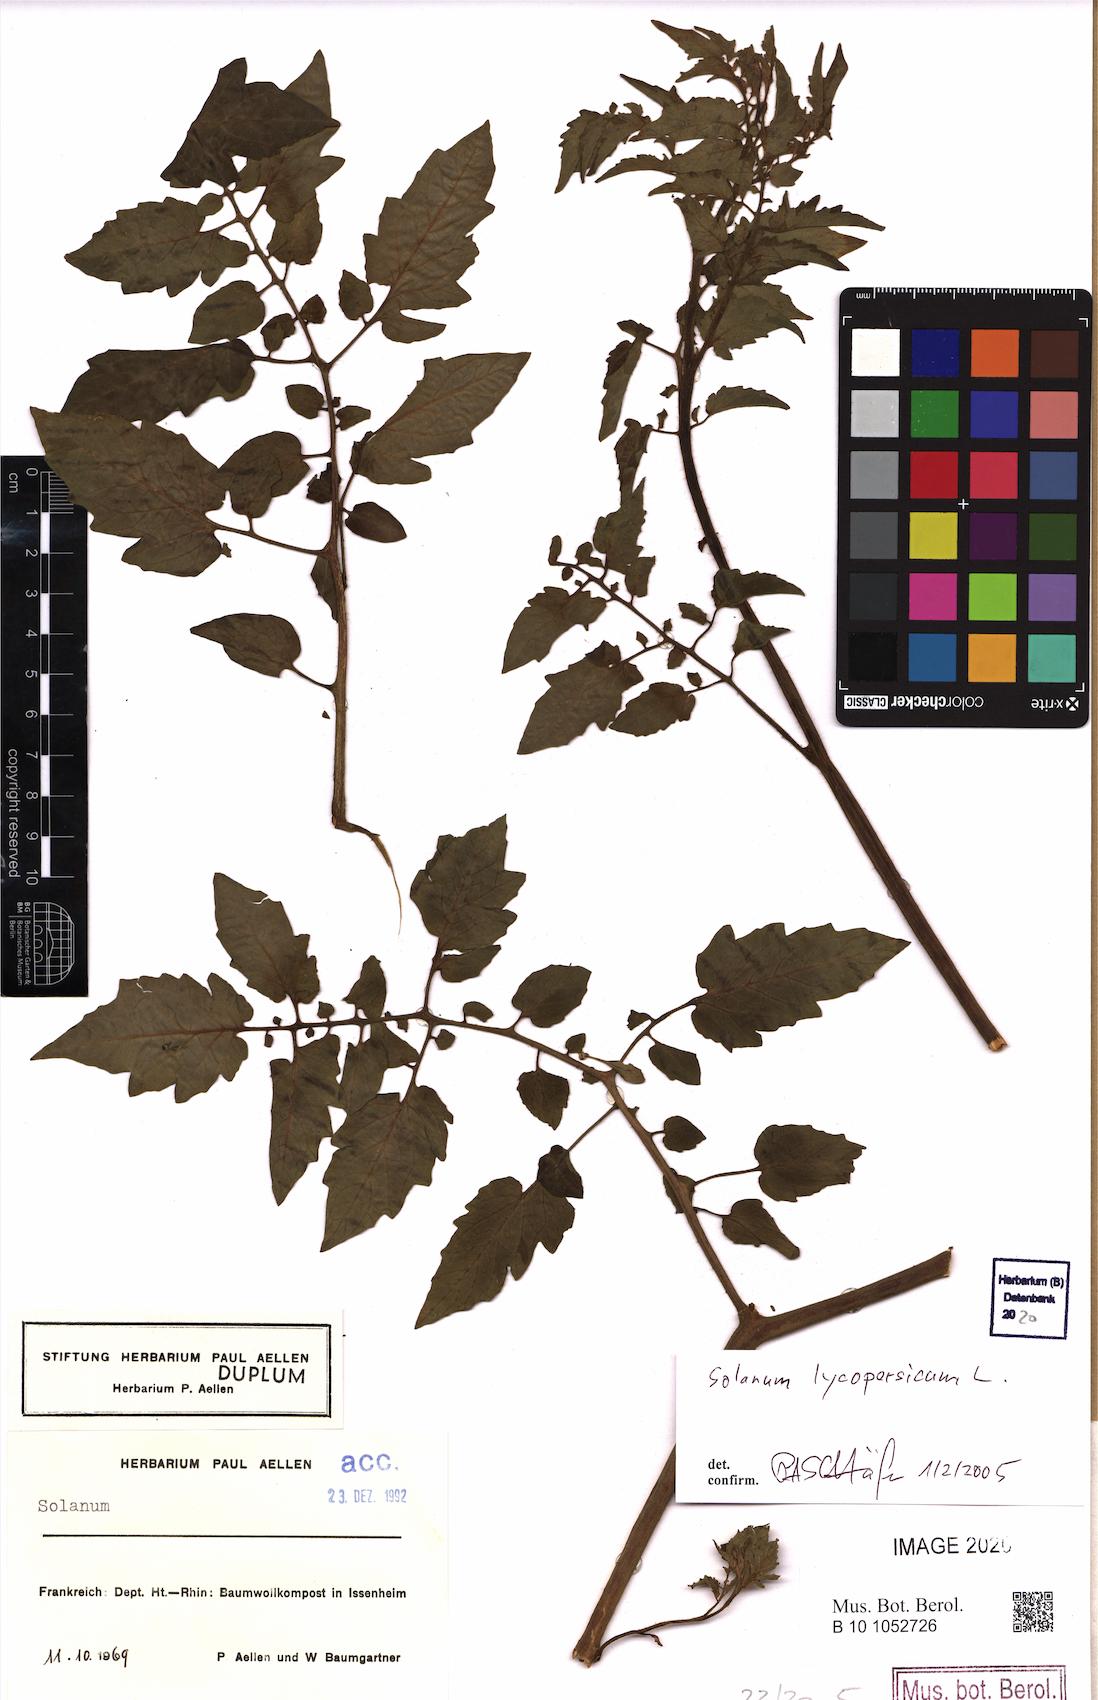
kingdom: Plantae
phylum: Tracheophyta
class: Magnoliopsida
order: Solanales
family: Solanaceae
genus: Solanum
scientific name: Solanum lycopersicum
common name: Garden tomato
